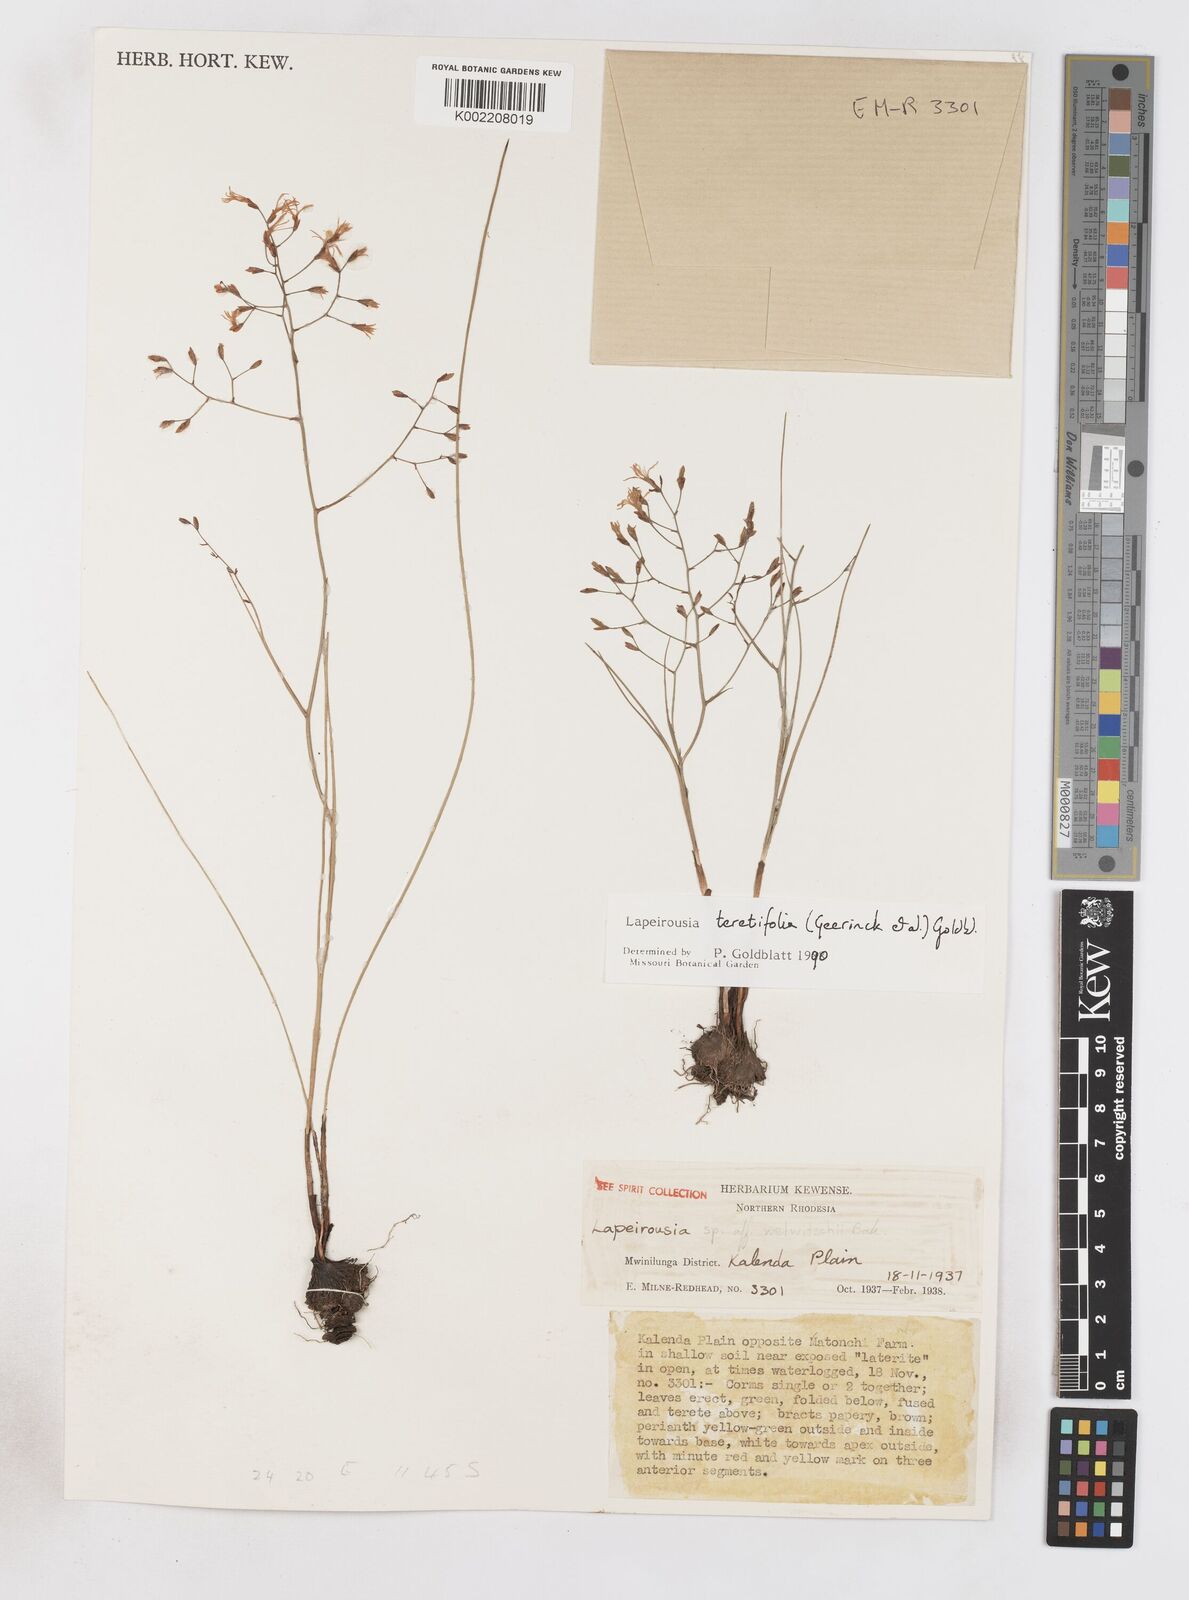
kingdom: Plantae
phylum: Tracheophyta
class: Liliopsida
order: Asparagales
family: Iridaceae
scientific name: Iridaceae
